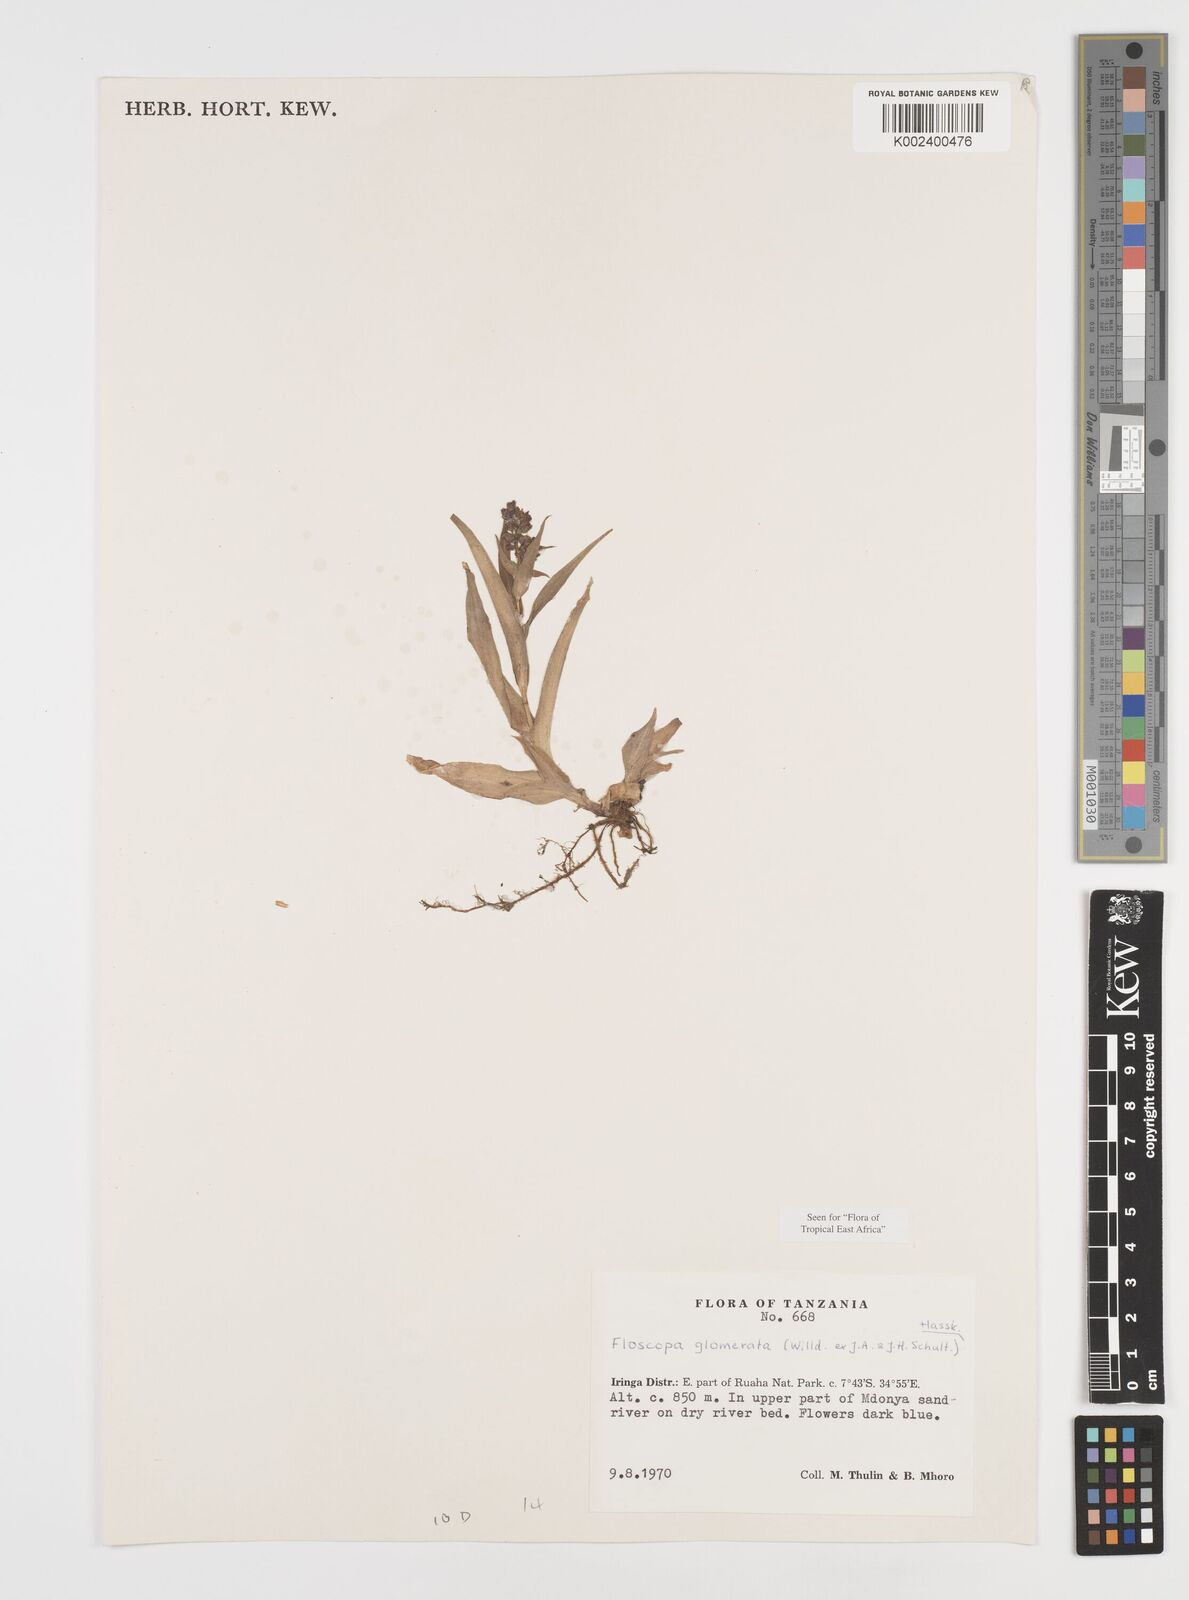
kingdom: Plantae
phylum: Tracheophyta
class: Liliopsida
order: Commelinales
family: Commelinaceae
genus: Floscopa
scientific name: Floscopa glomerata
